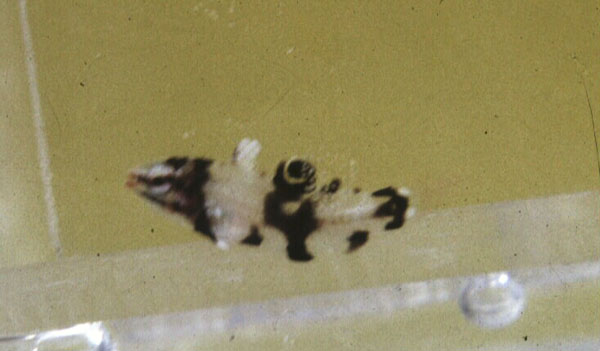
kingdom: Animalia
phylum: Chordata
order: Perciformes
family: Labridae
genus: Bodianus
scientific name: Bodianus axillaris
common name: Axilspot hogfish
